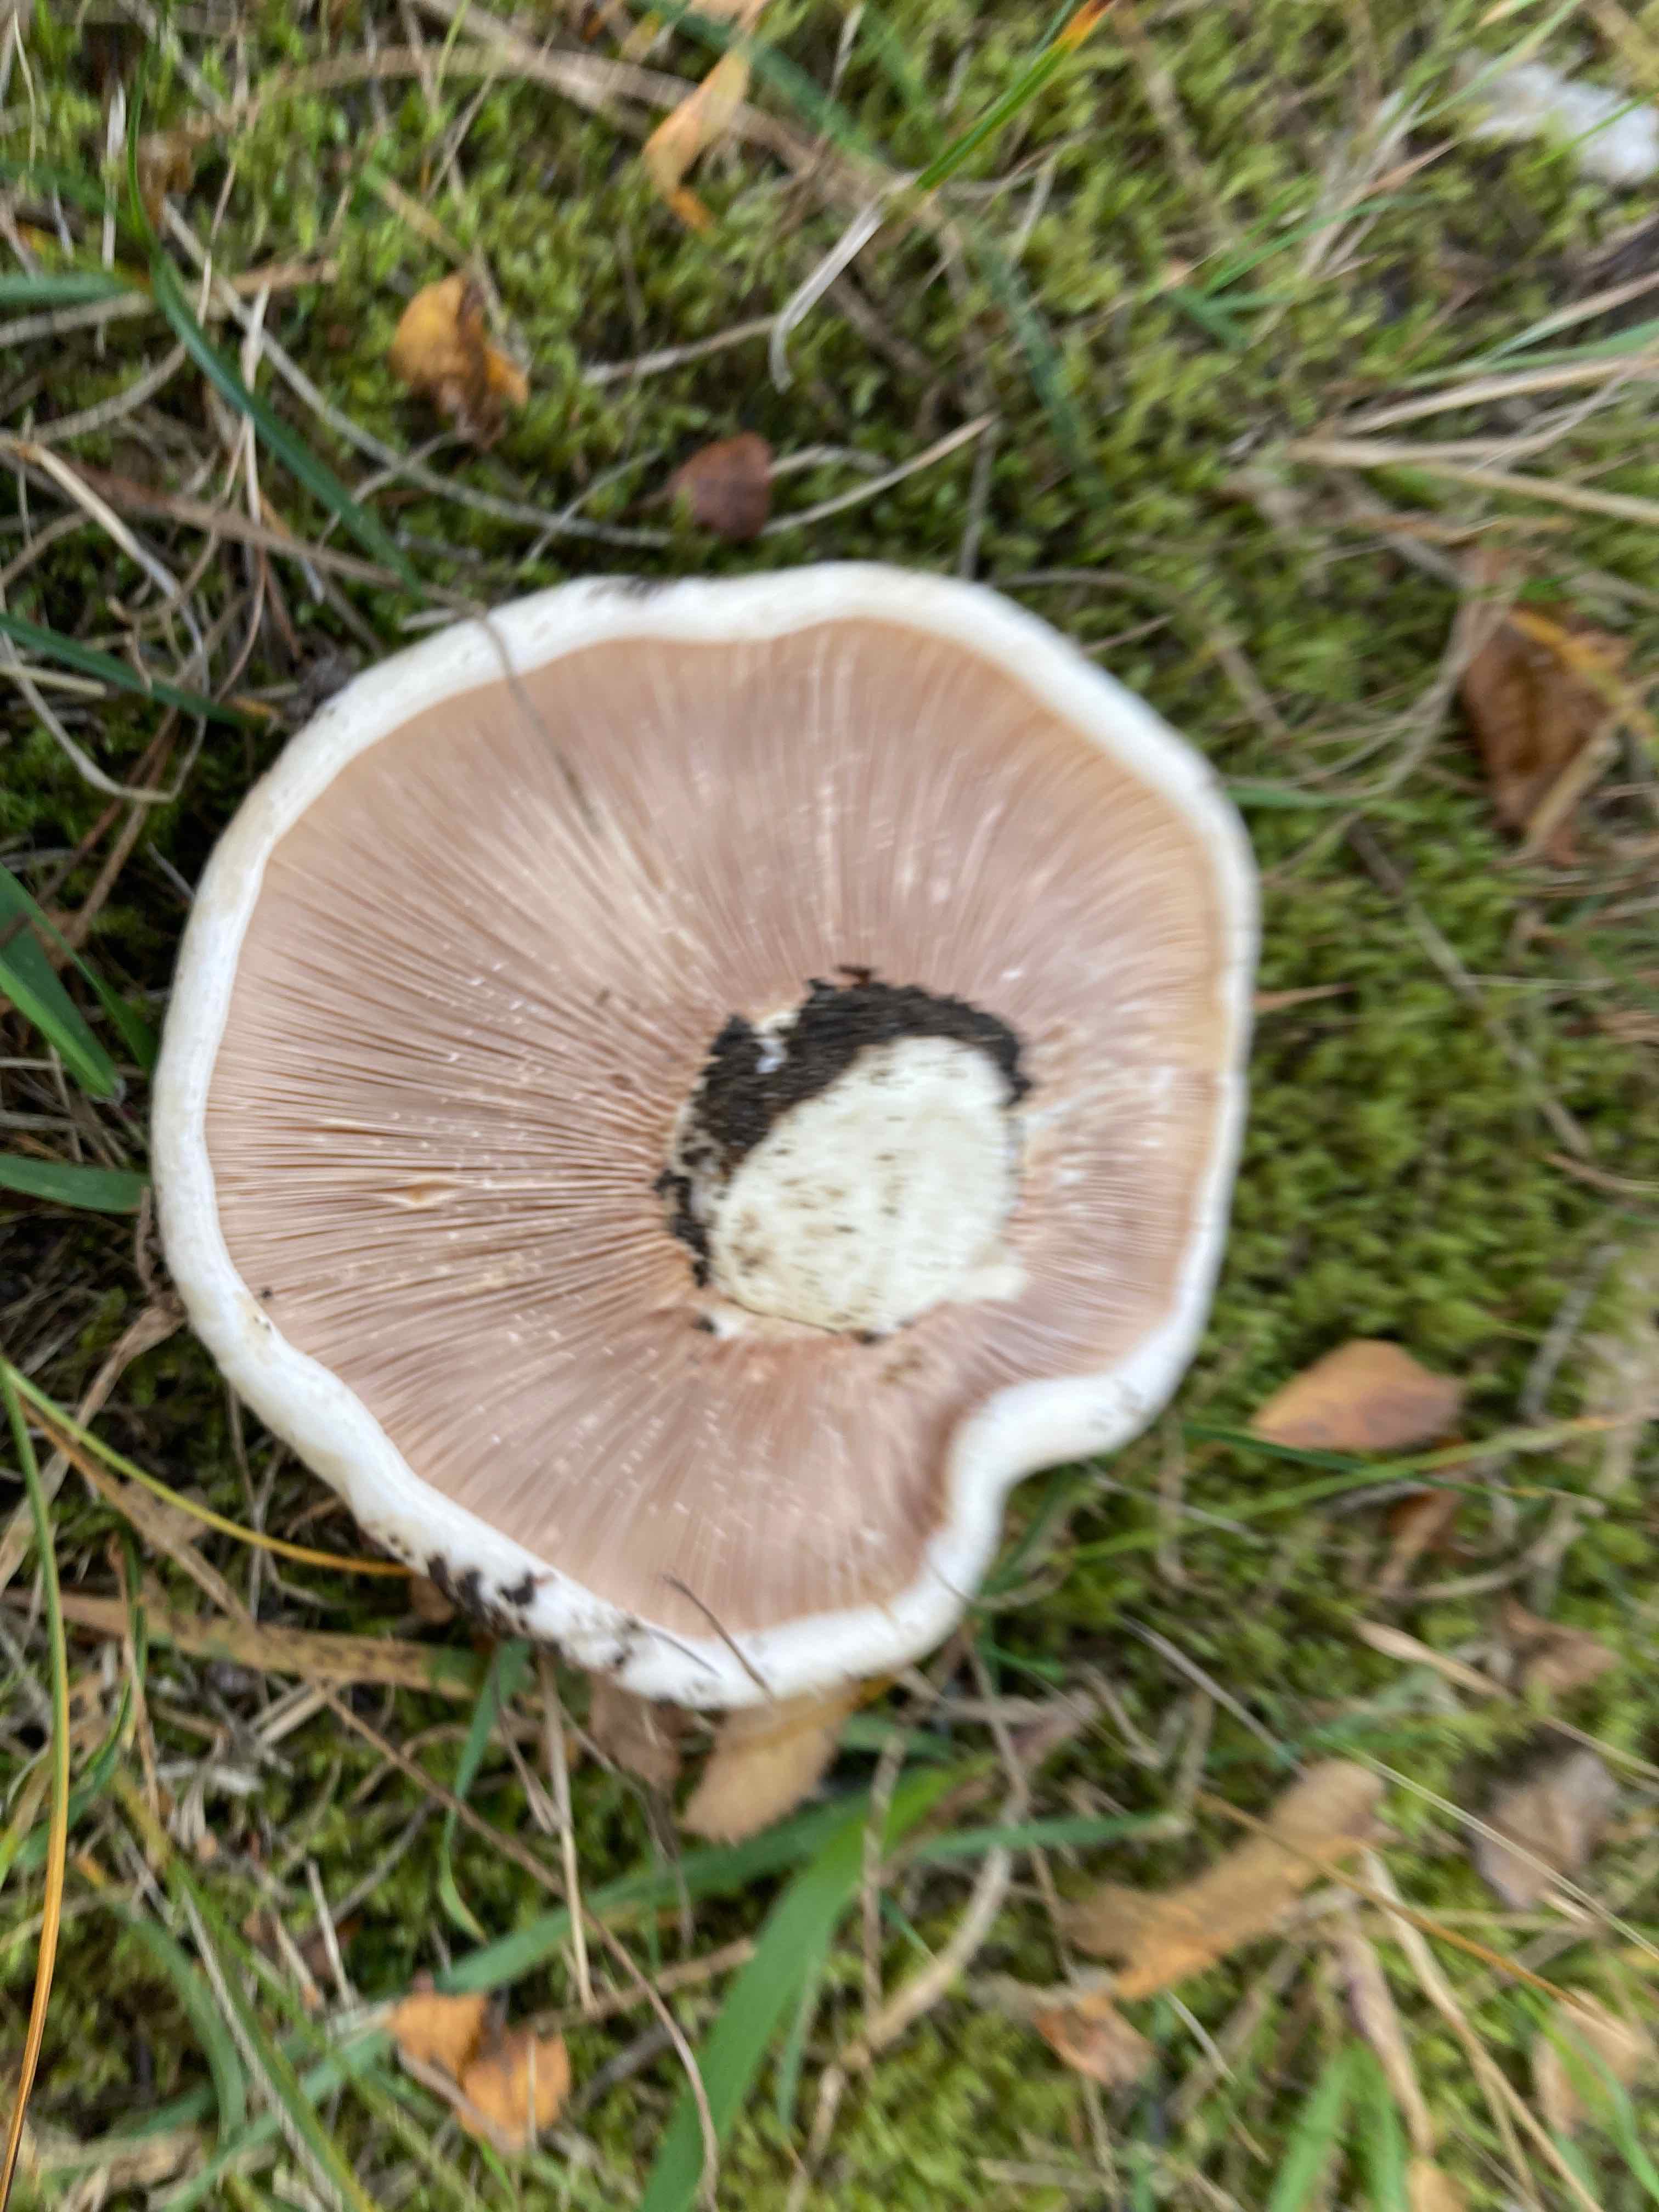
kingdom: Fungi
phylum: Basidiomycota
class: Agaricomycetes
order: Russulales
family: Russulaceae
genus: Lactarius
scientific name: Lactarius controversus
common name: rosabladet mælkehat
